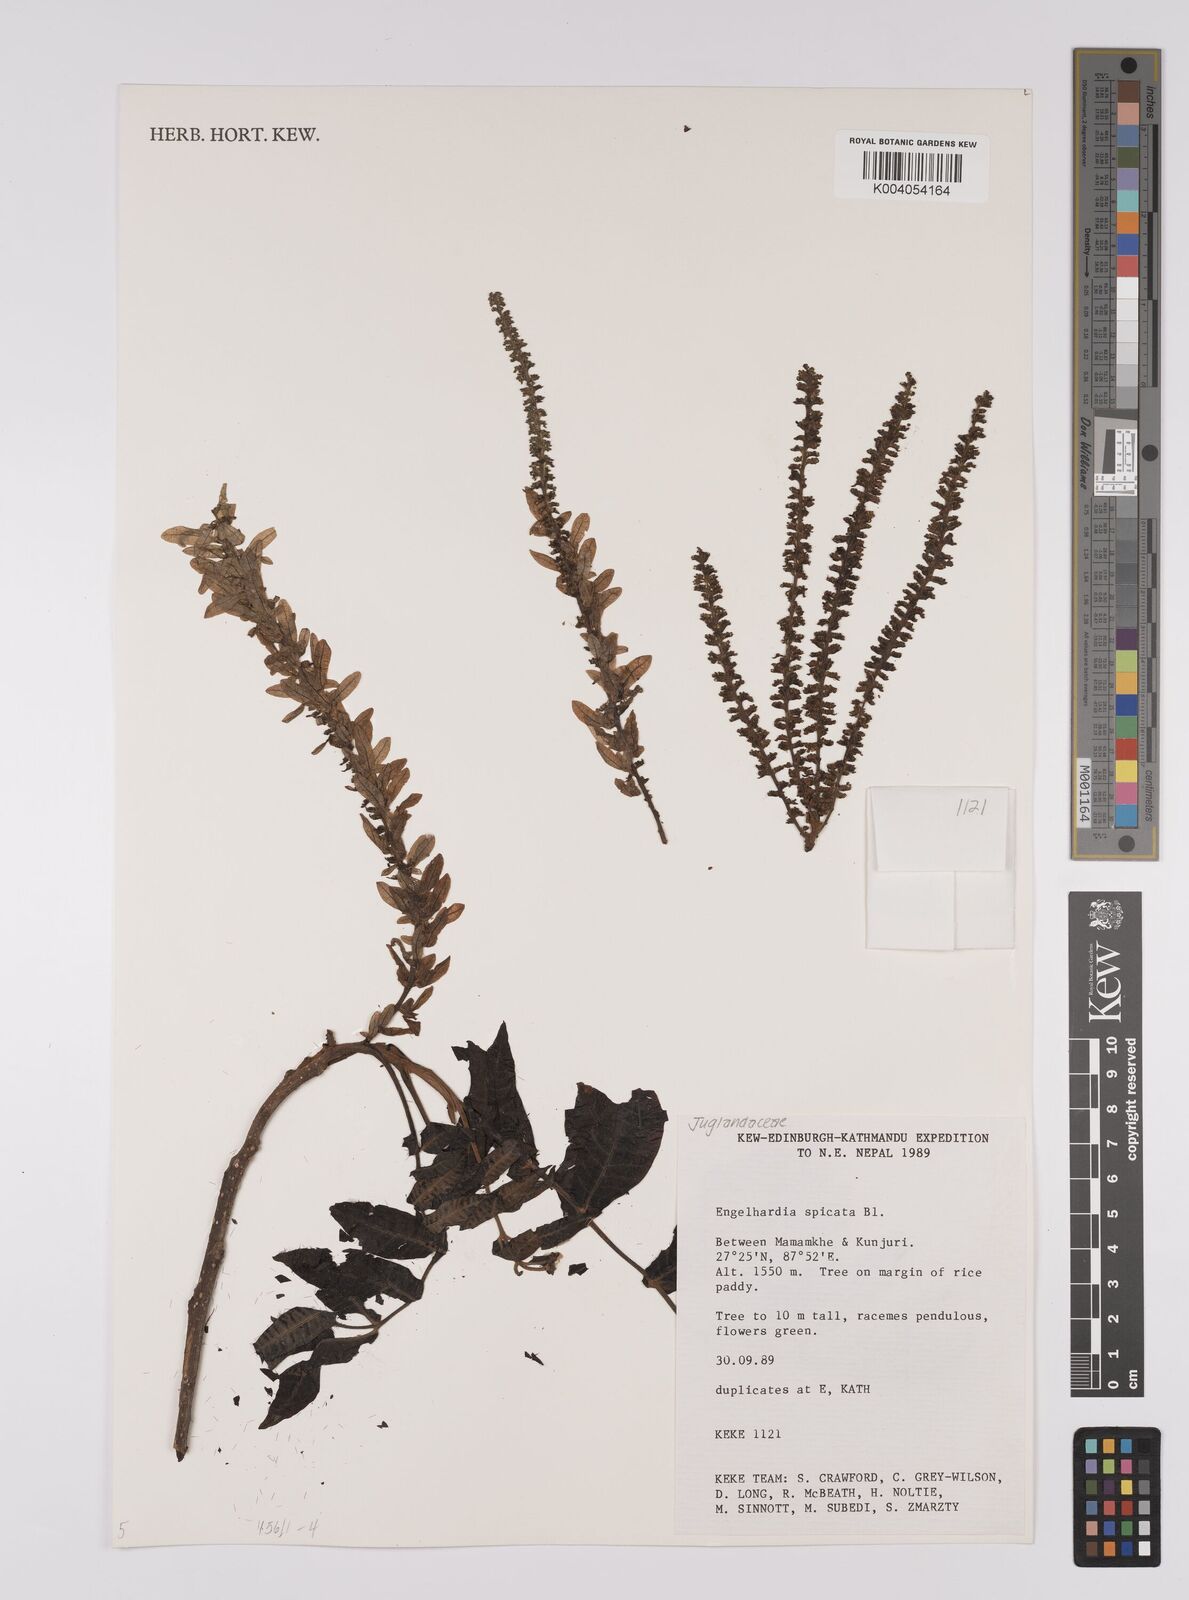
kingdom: Plantae
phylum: Tracheophyta
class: Magnoliopsida
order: Fagales
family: Juglandaceae
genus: Engelhardia
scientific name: Engelhardia spicata
